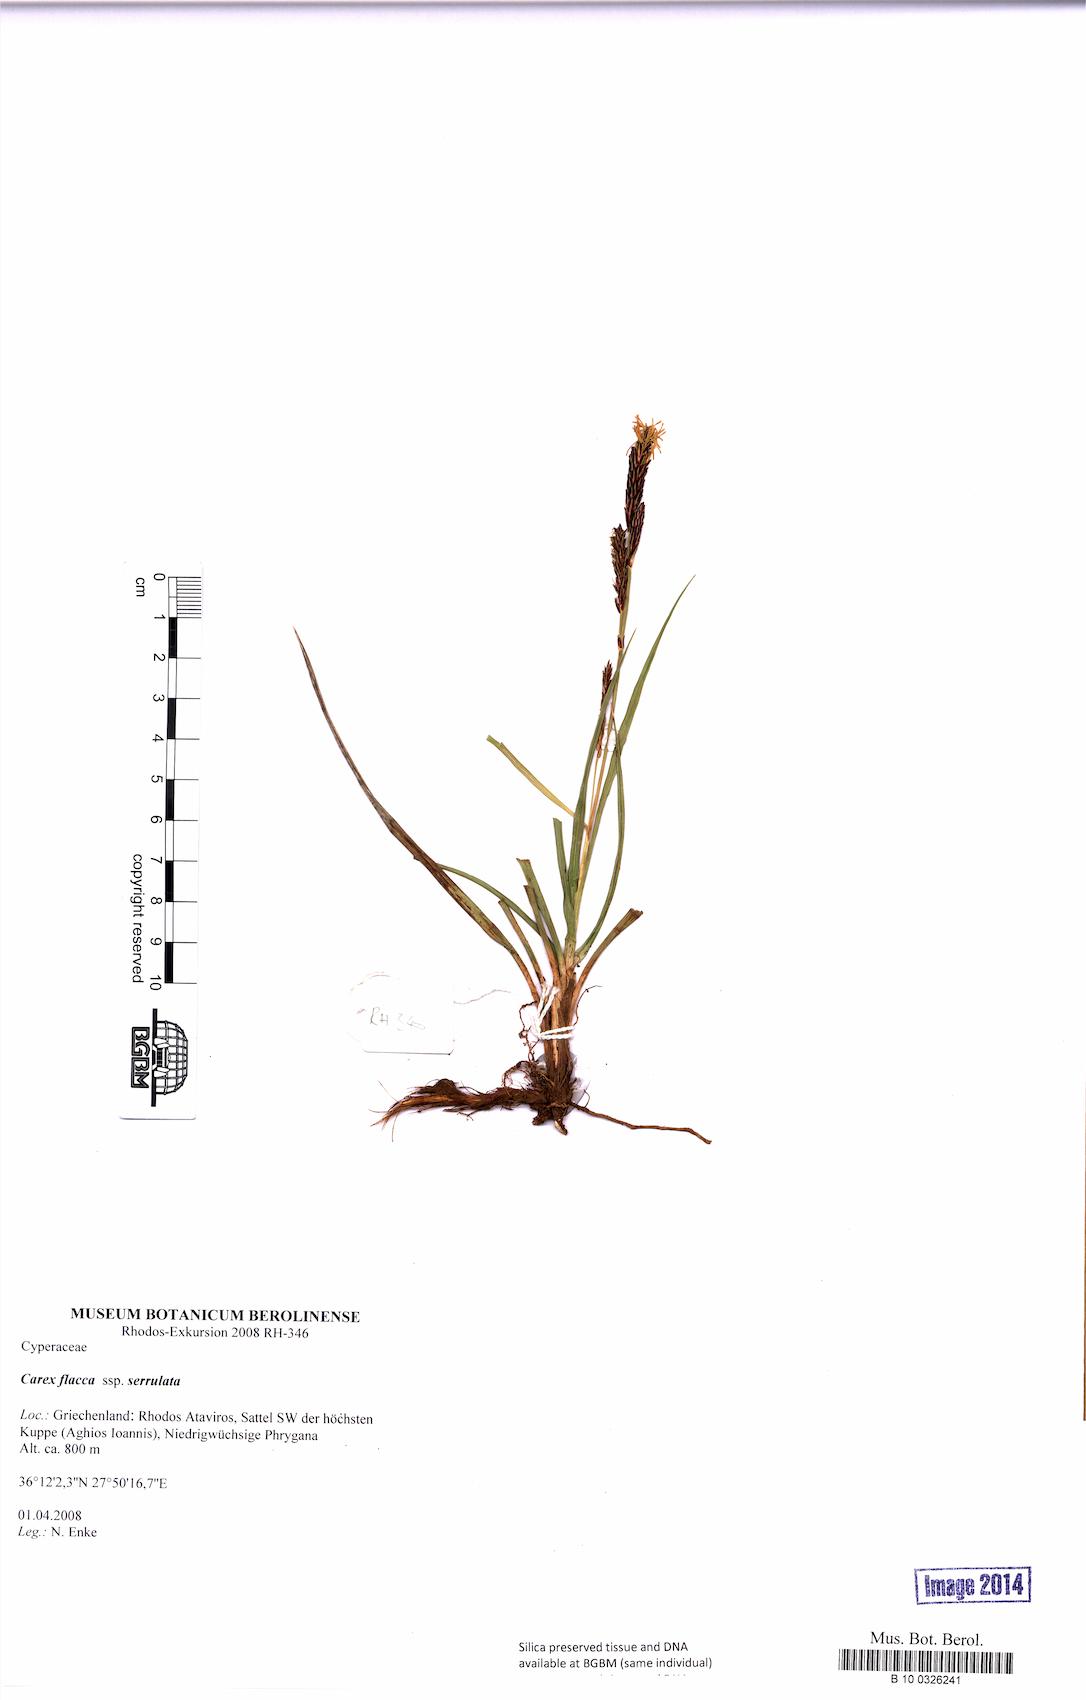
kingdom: Plantae
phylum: Tracheophyta
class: Liliopsida
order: Poales
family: Cyperaceae
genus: Carex
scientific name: Carex flacca
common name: Glaucous sedge
